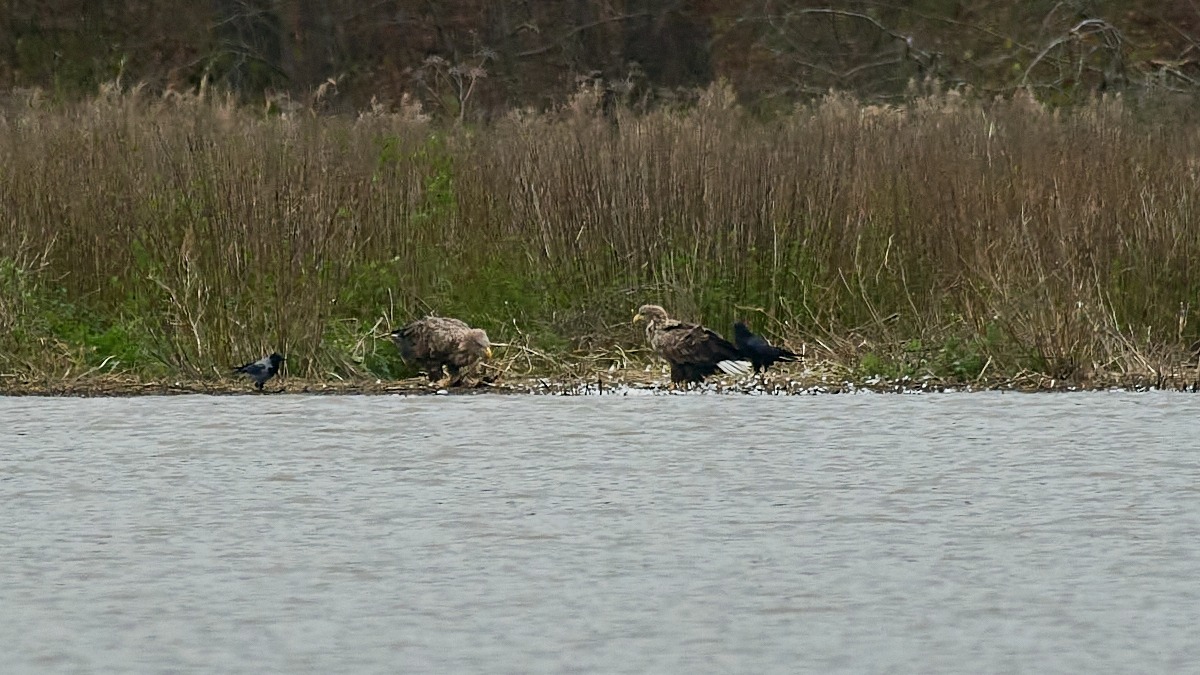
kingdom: Animalia
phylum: Chordata
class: Aves
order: Accipitriformes
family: Accipitridae
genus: Haliaeetus
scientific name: Haliaeetus albicilla
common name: Havørn
